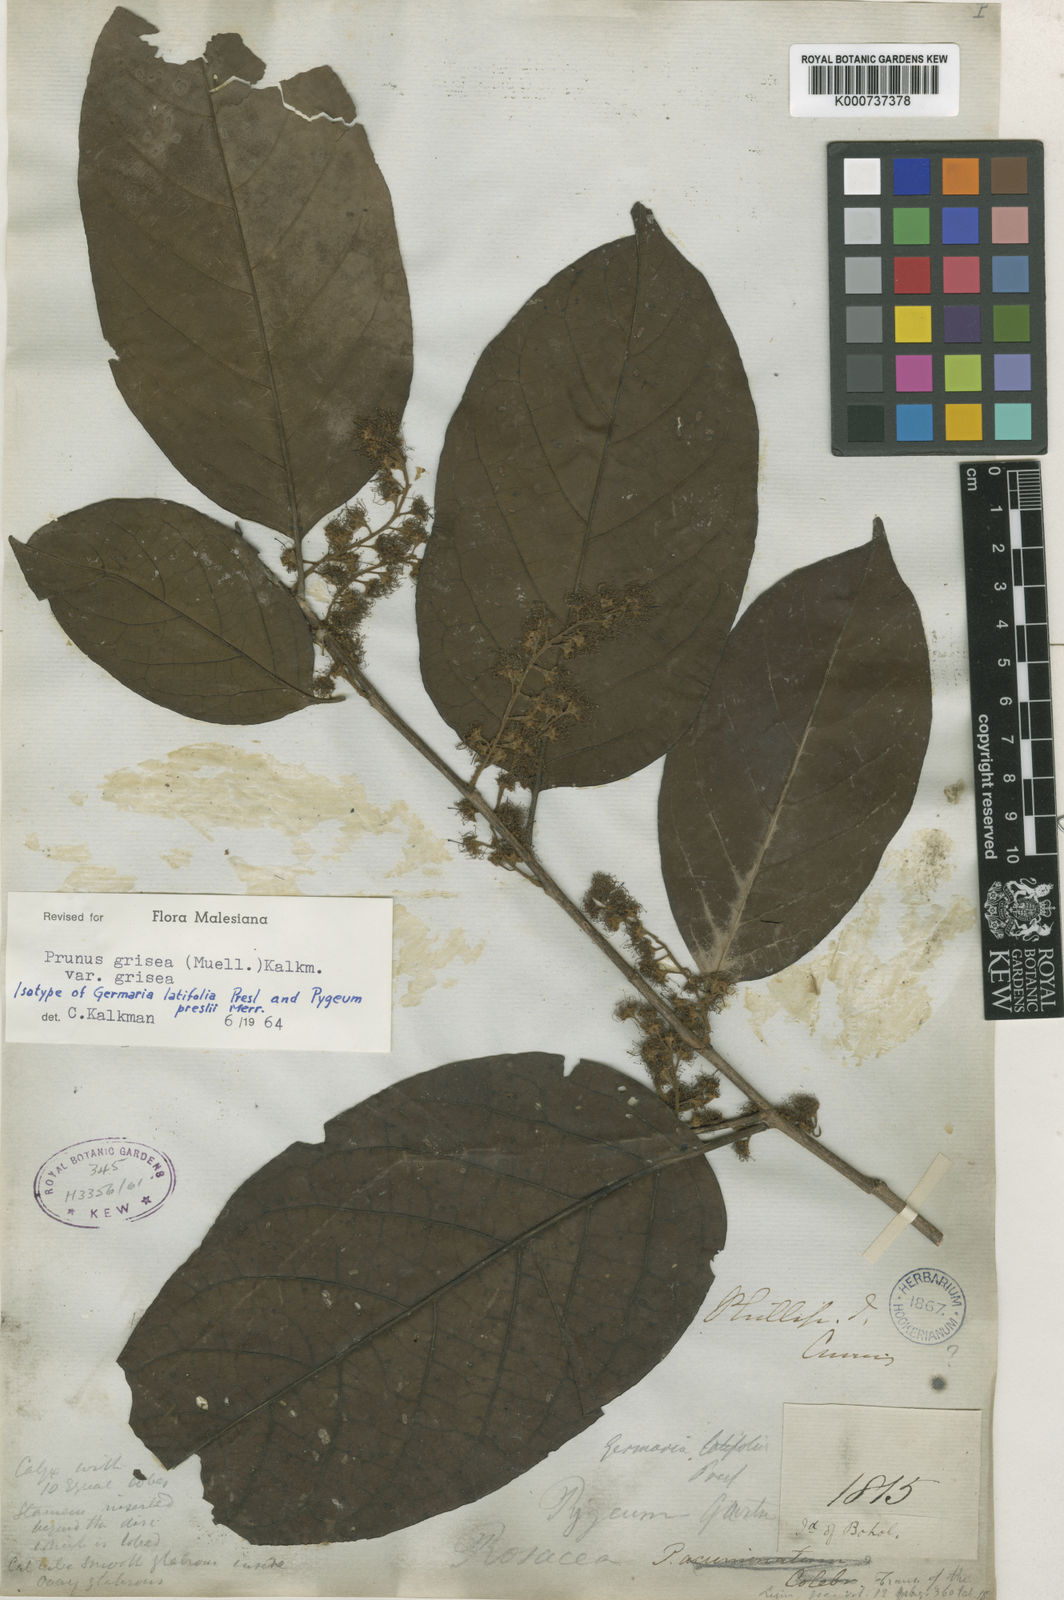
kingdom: Plantae
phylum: Tracheophyta
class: Magnoliopsida
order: Rosales
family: Rosaceae
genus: Prunus
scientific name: Prunus
